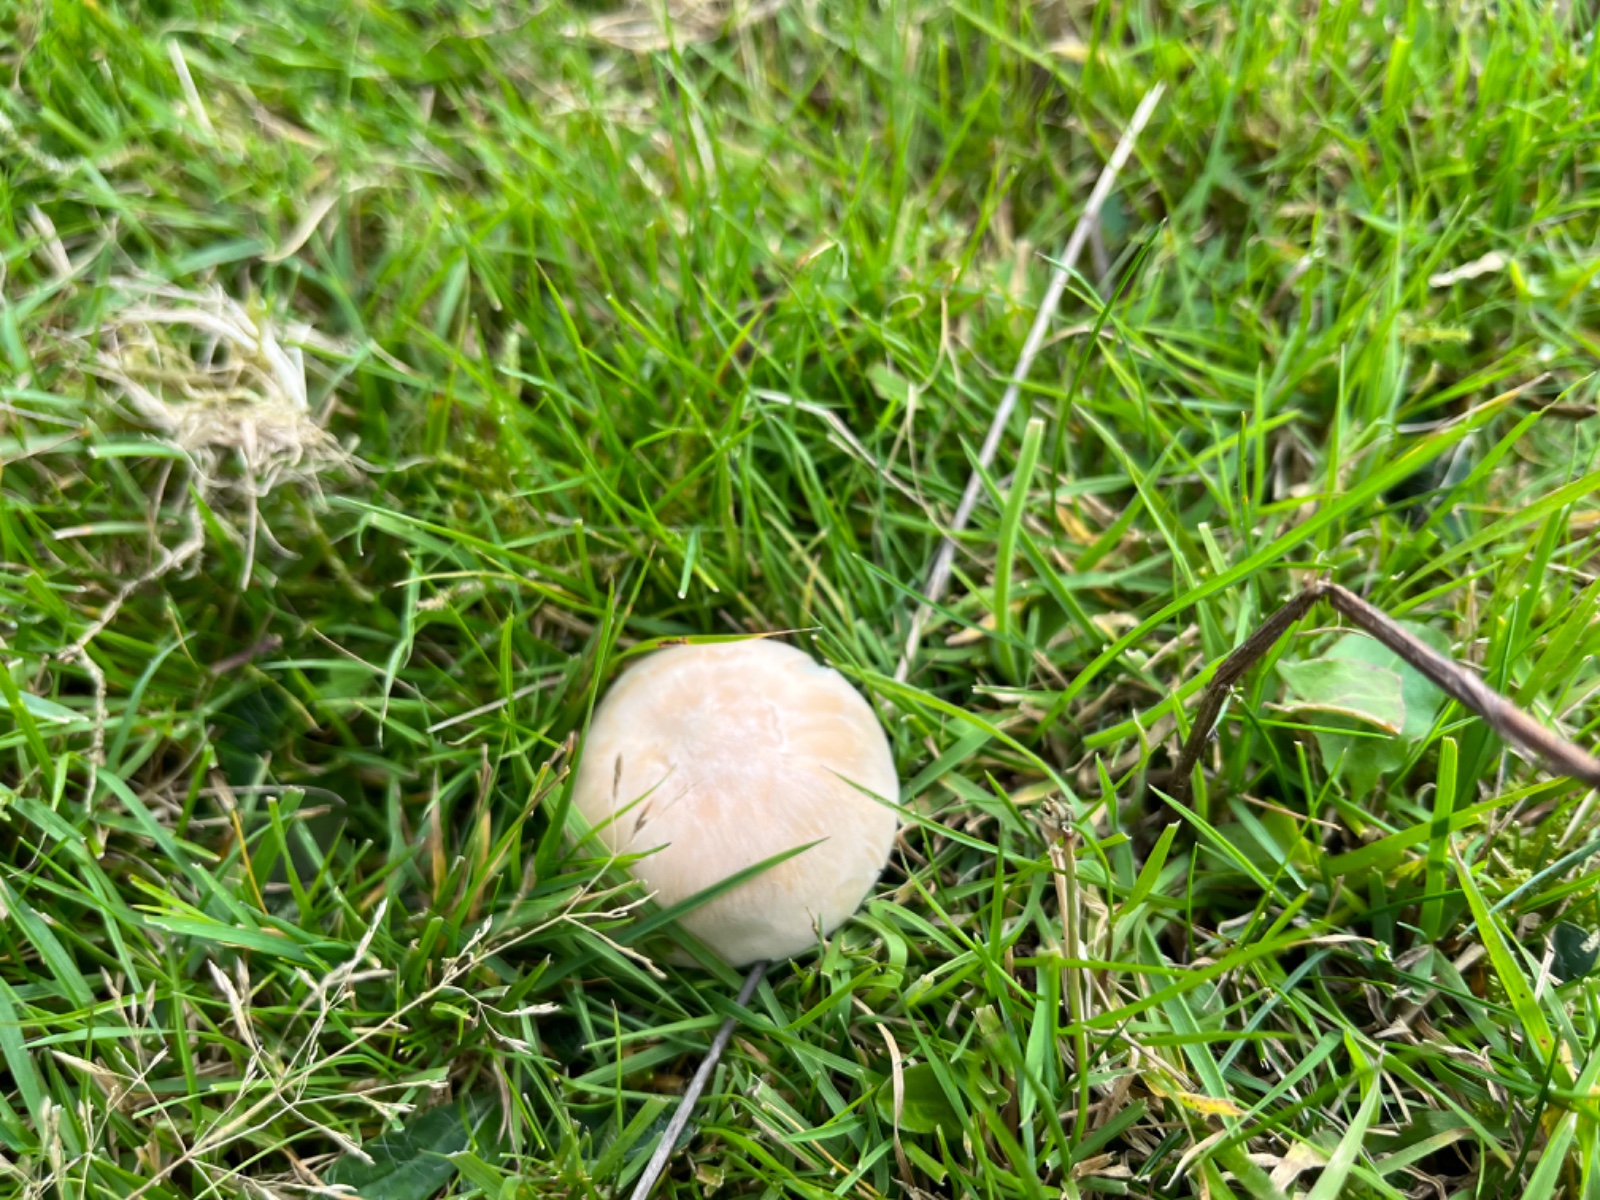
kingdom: Fungi
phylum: Basidiomycota
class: Agaricomycetes
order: Agaricales
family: Hygrophoraceae
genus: Cuphophyllus
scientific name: Cuphophyllus
